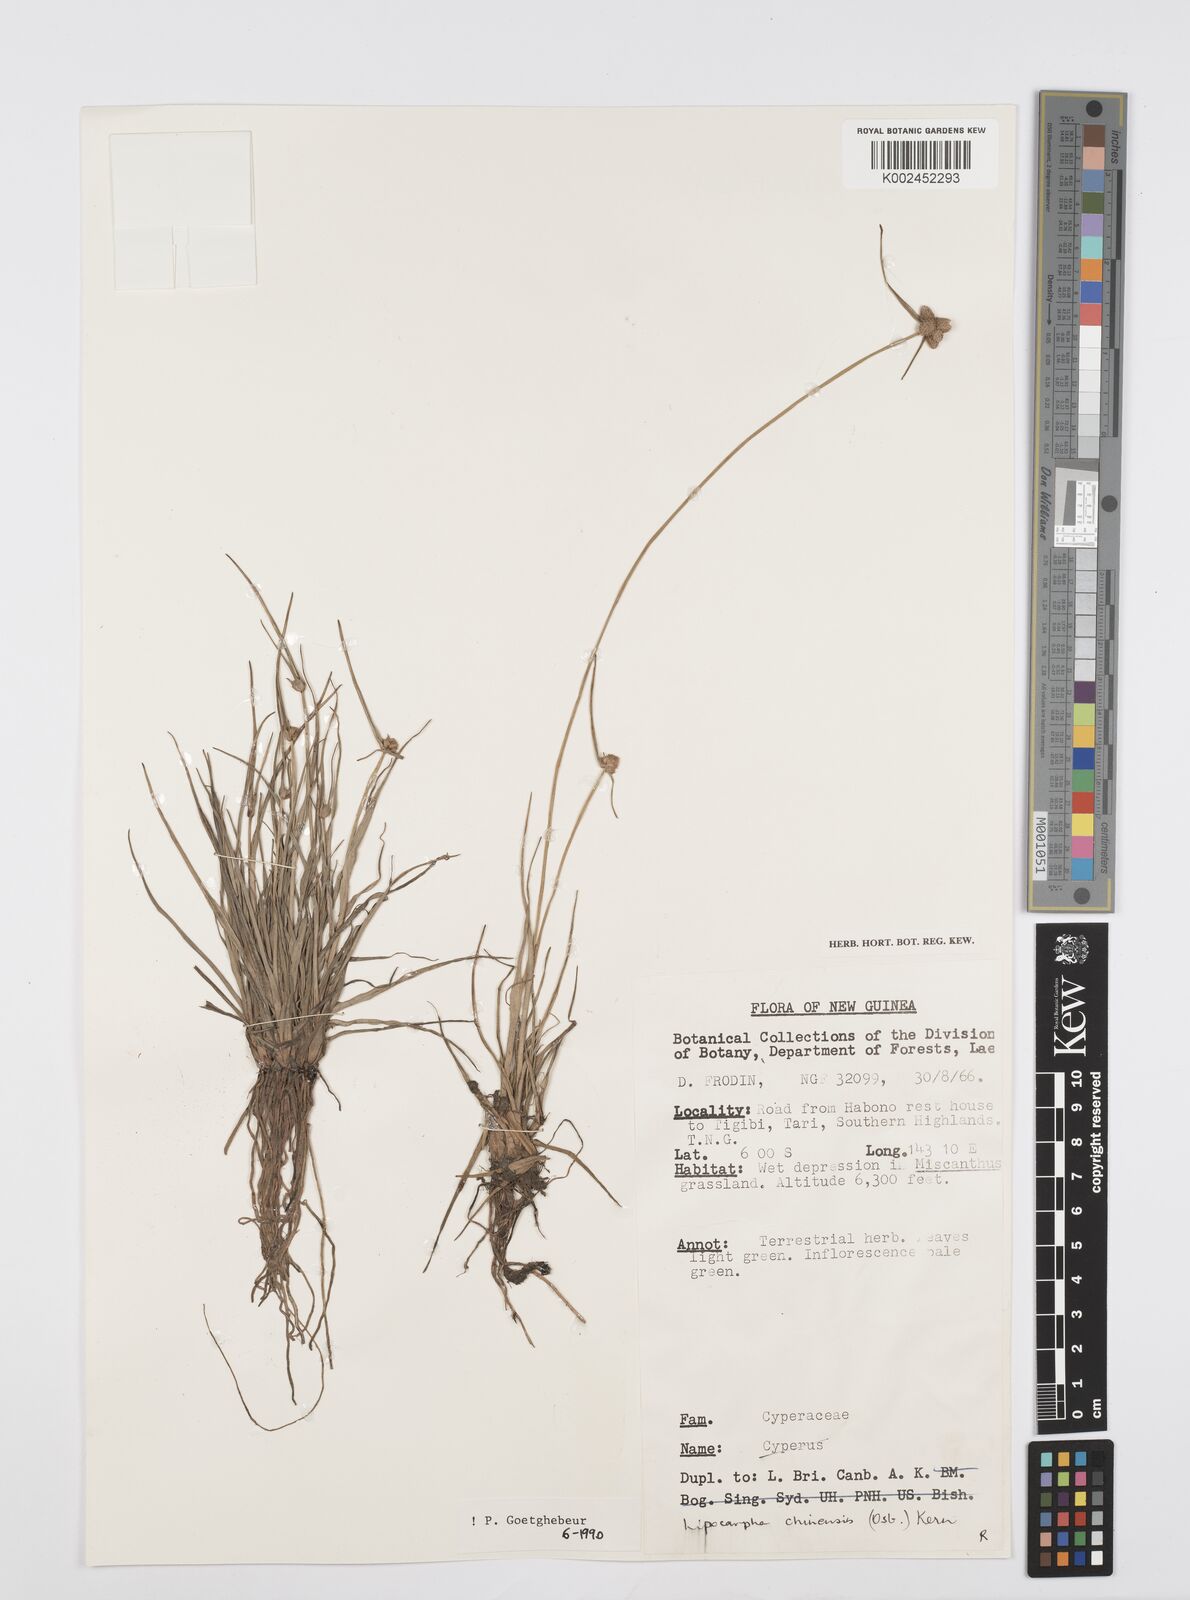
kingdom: Plantae
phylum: Tracheophyta
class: Liliopsida
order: Poales
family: Cyperaceae
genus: Cyperus
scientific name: Cyperus albescens
